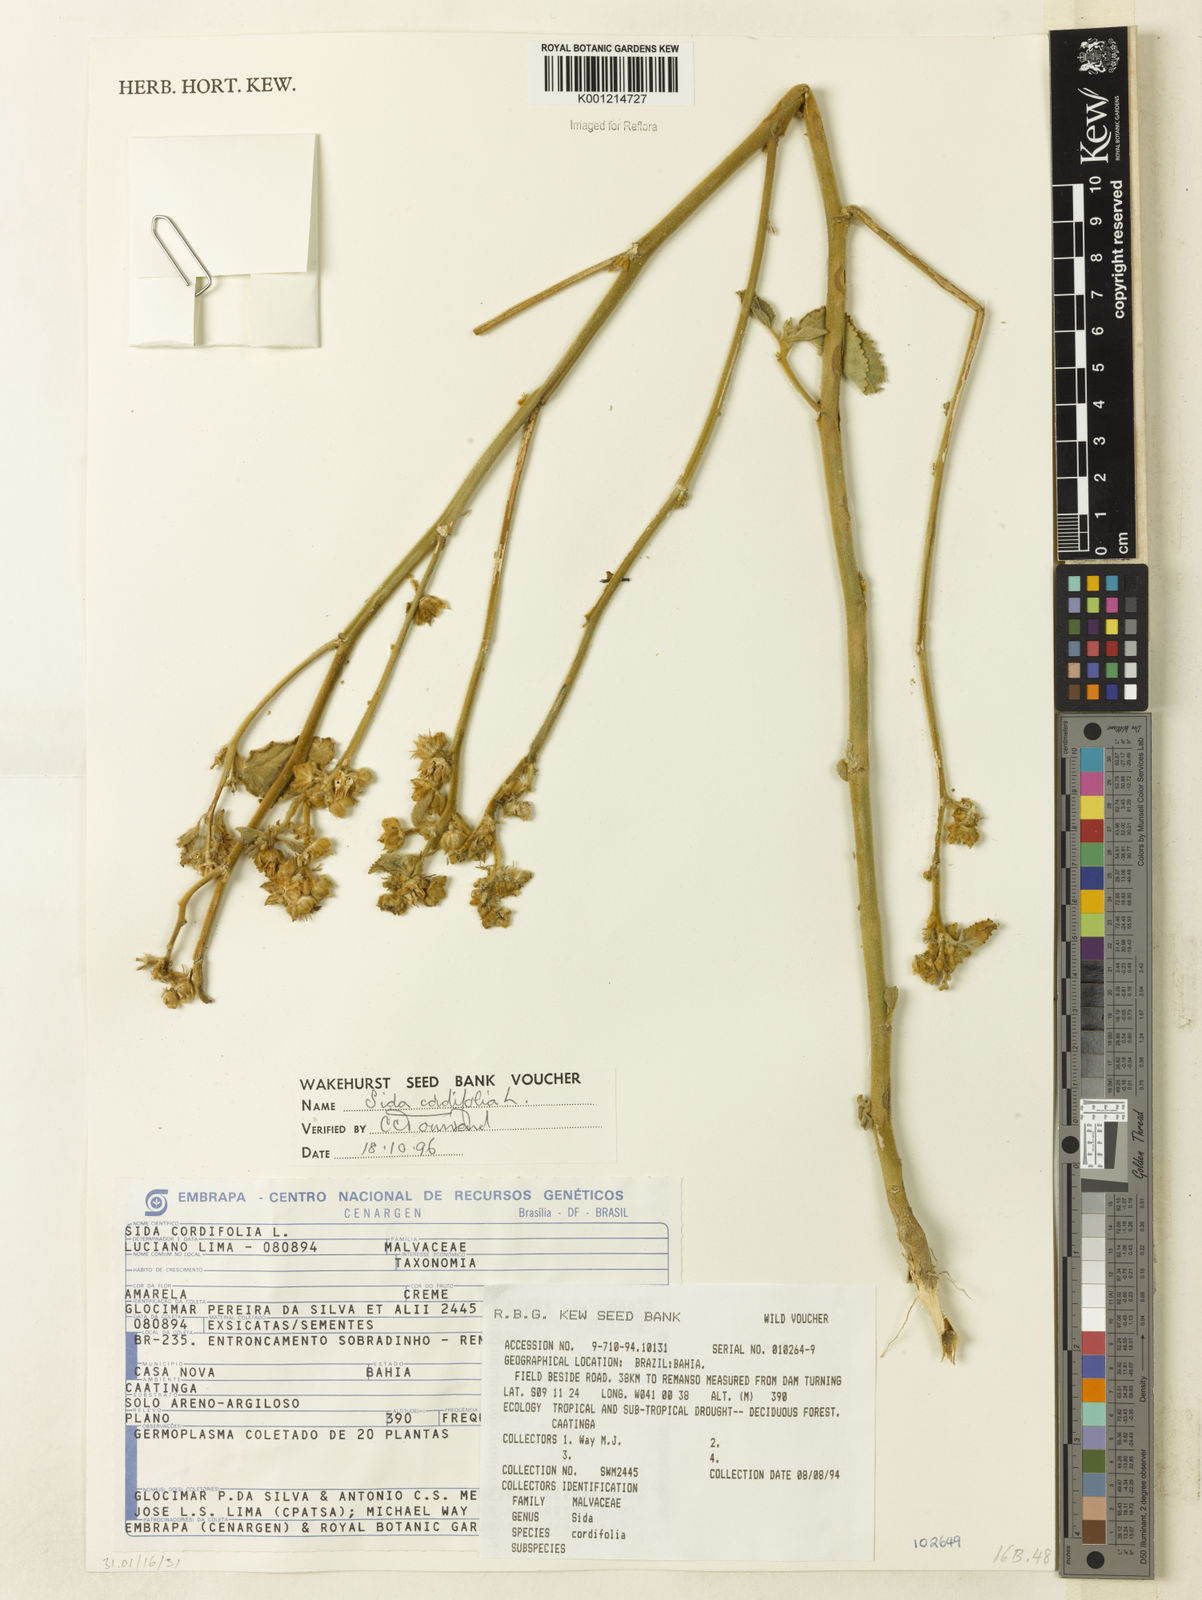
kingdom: Plantae
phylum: Tracheophyta
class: Magnoliopsida
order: Malvales
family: Malvaceae
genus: Sida
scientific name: Sida cordifolia
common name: Ilima
